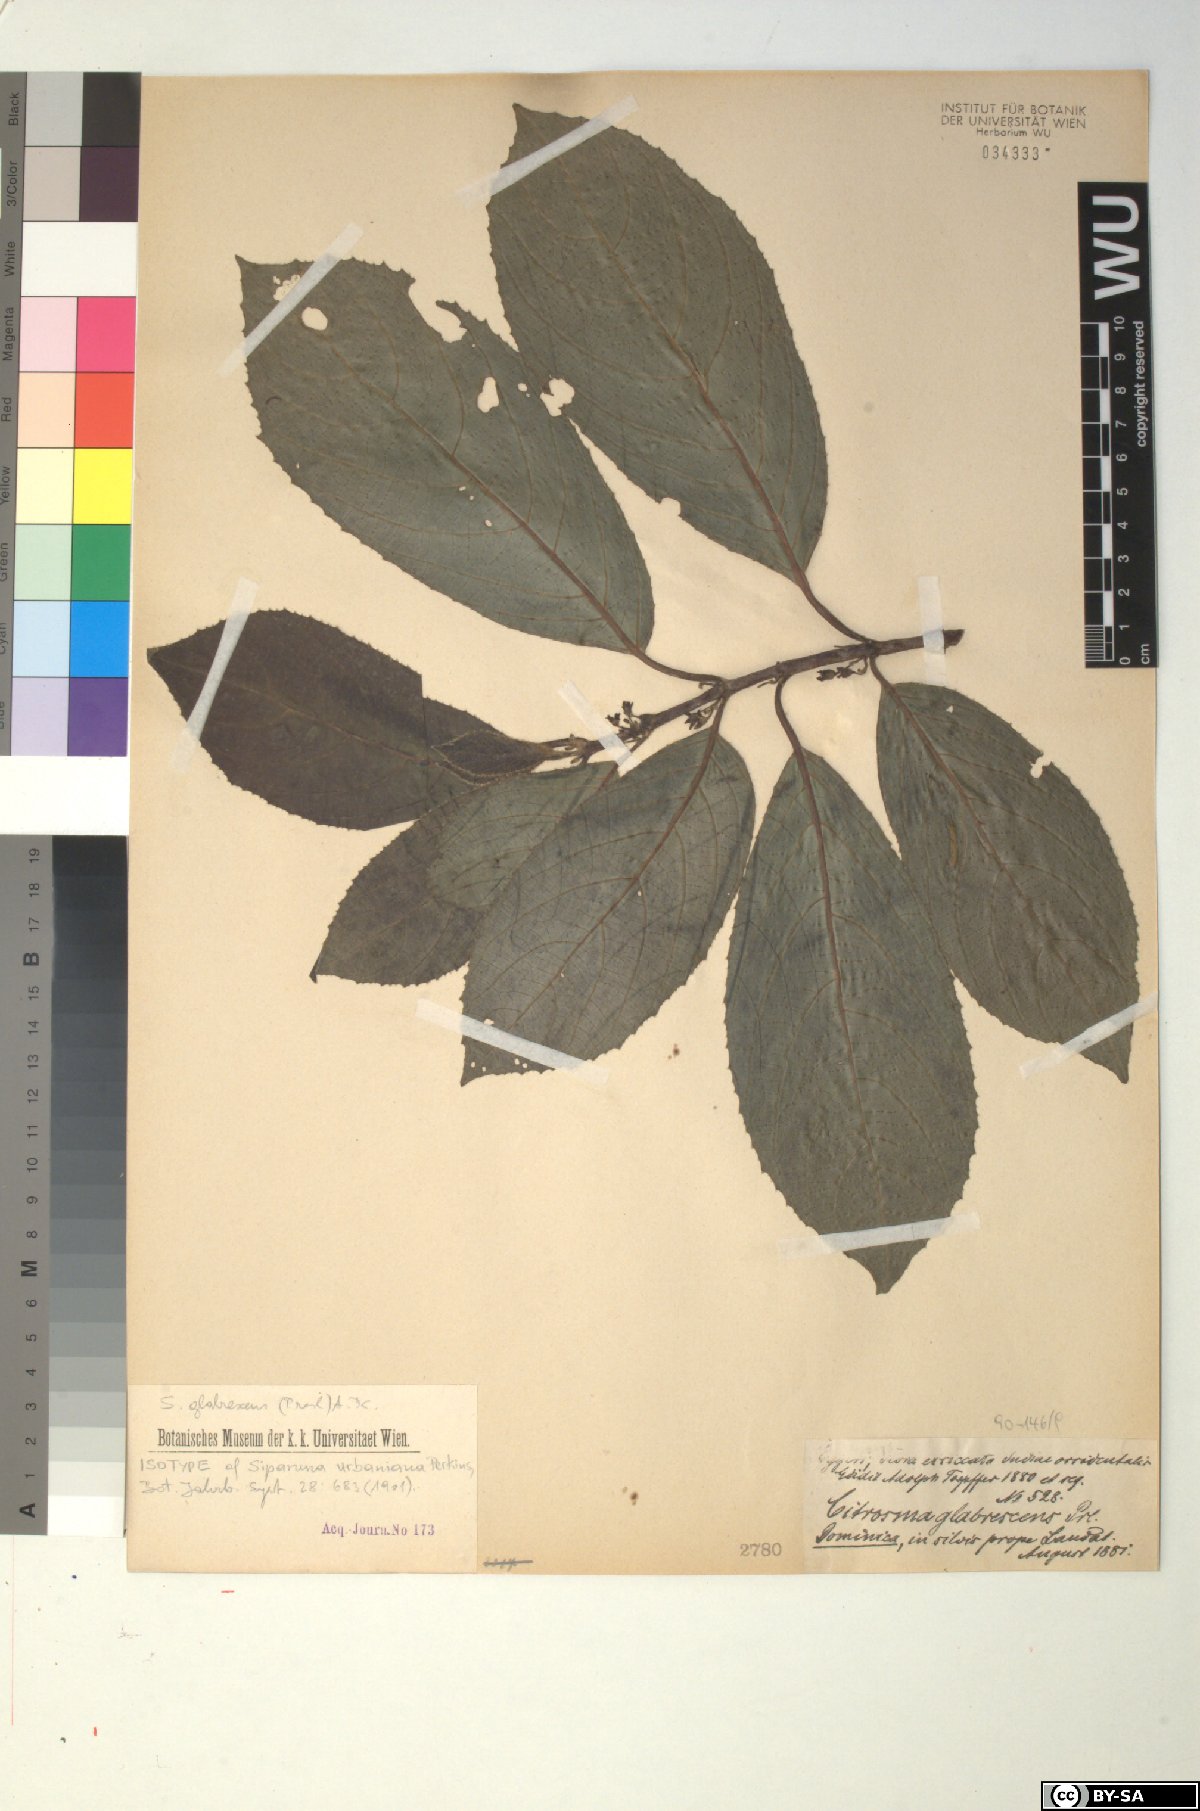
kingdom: Plantae
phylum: Tracheophyta
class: Magnoliopsida
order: Laurales
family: Siparunaceae
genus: Siparuna
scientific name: Siparuna glabrescens
